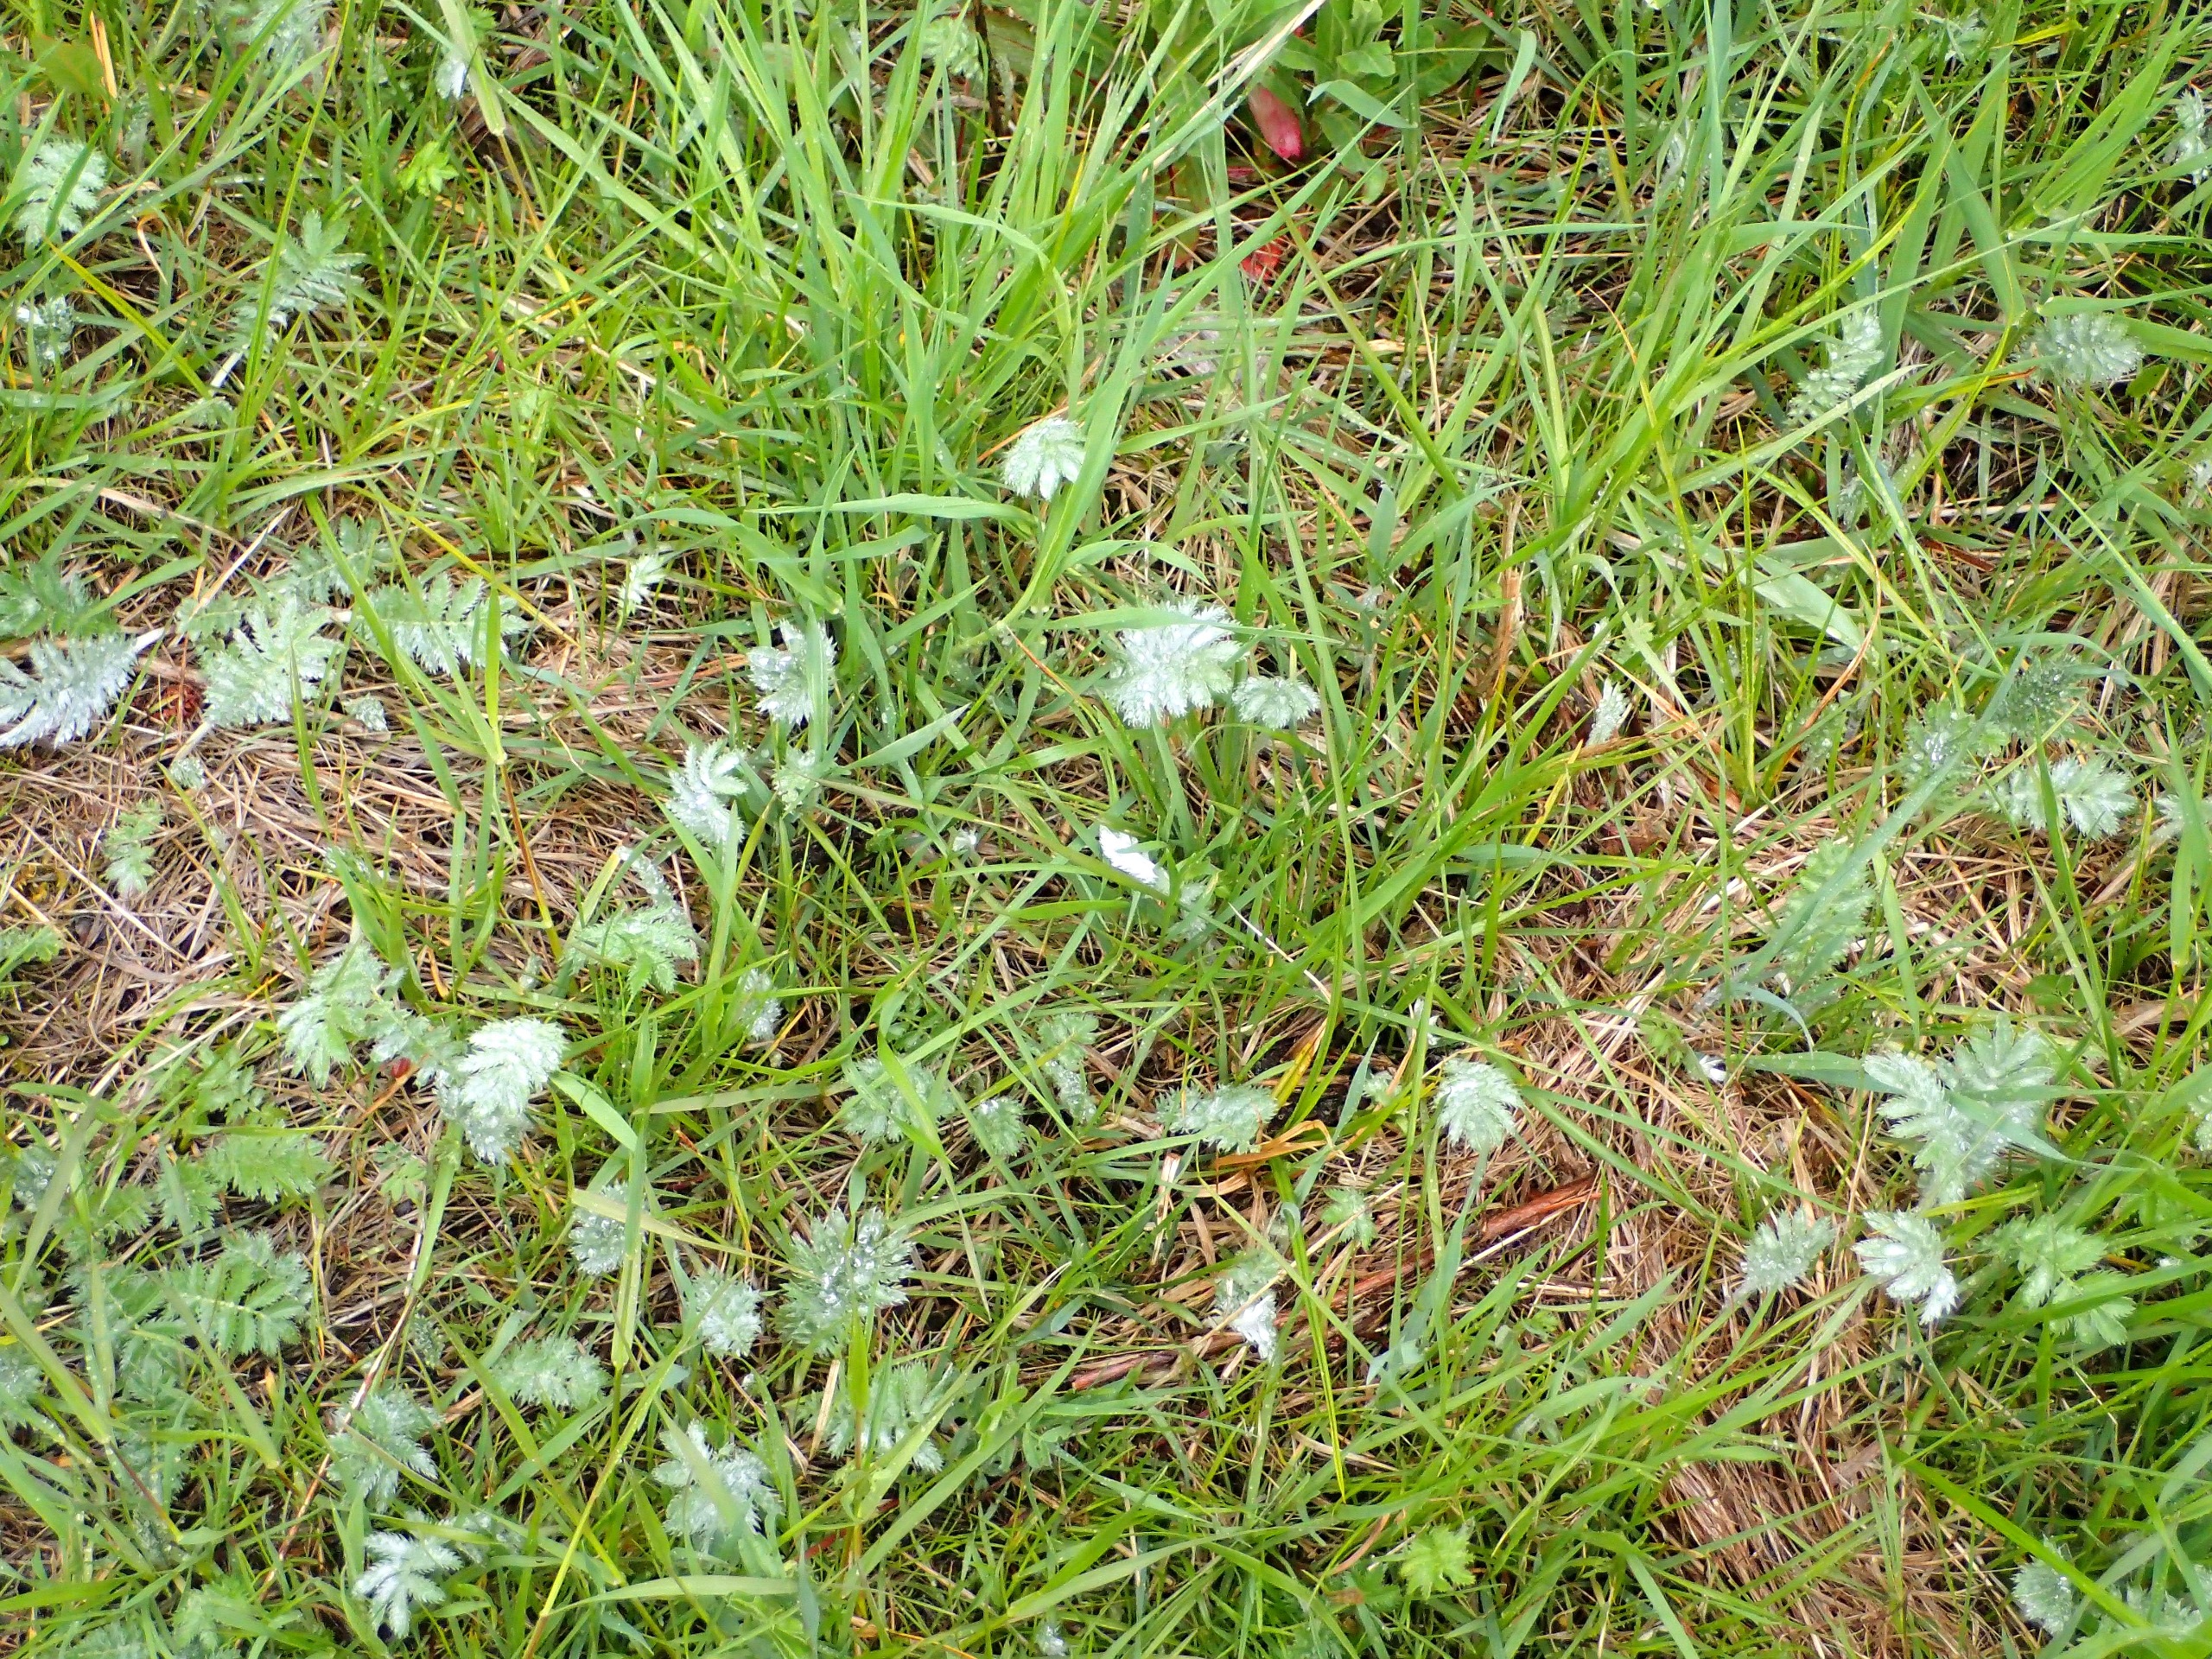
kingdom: Plantae
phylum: Tracheophyta
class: Magnoliopsida
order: Rosales
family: Rosaceae
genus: Argentina
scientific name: Argentina anserina
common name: Gåsepotentil
